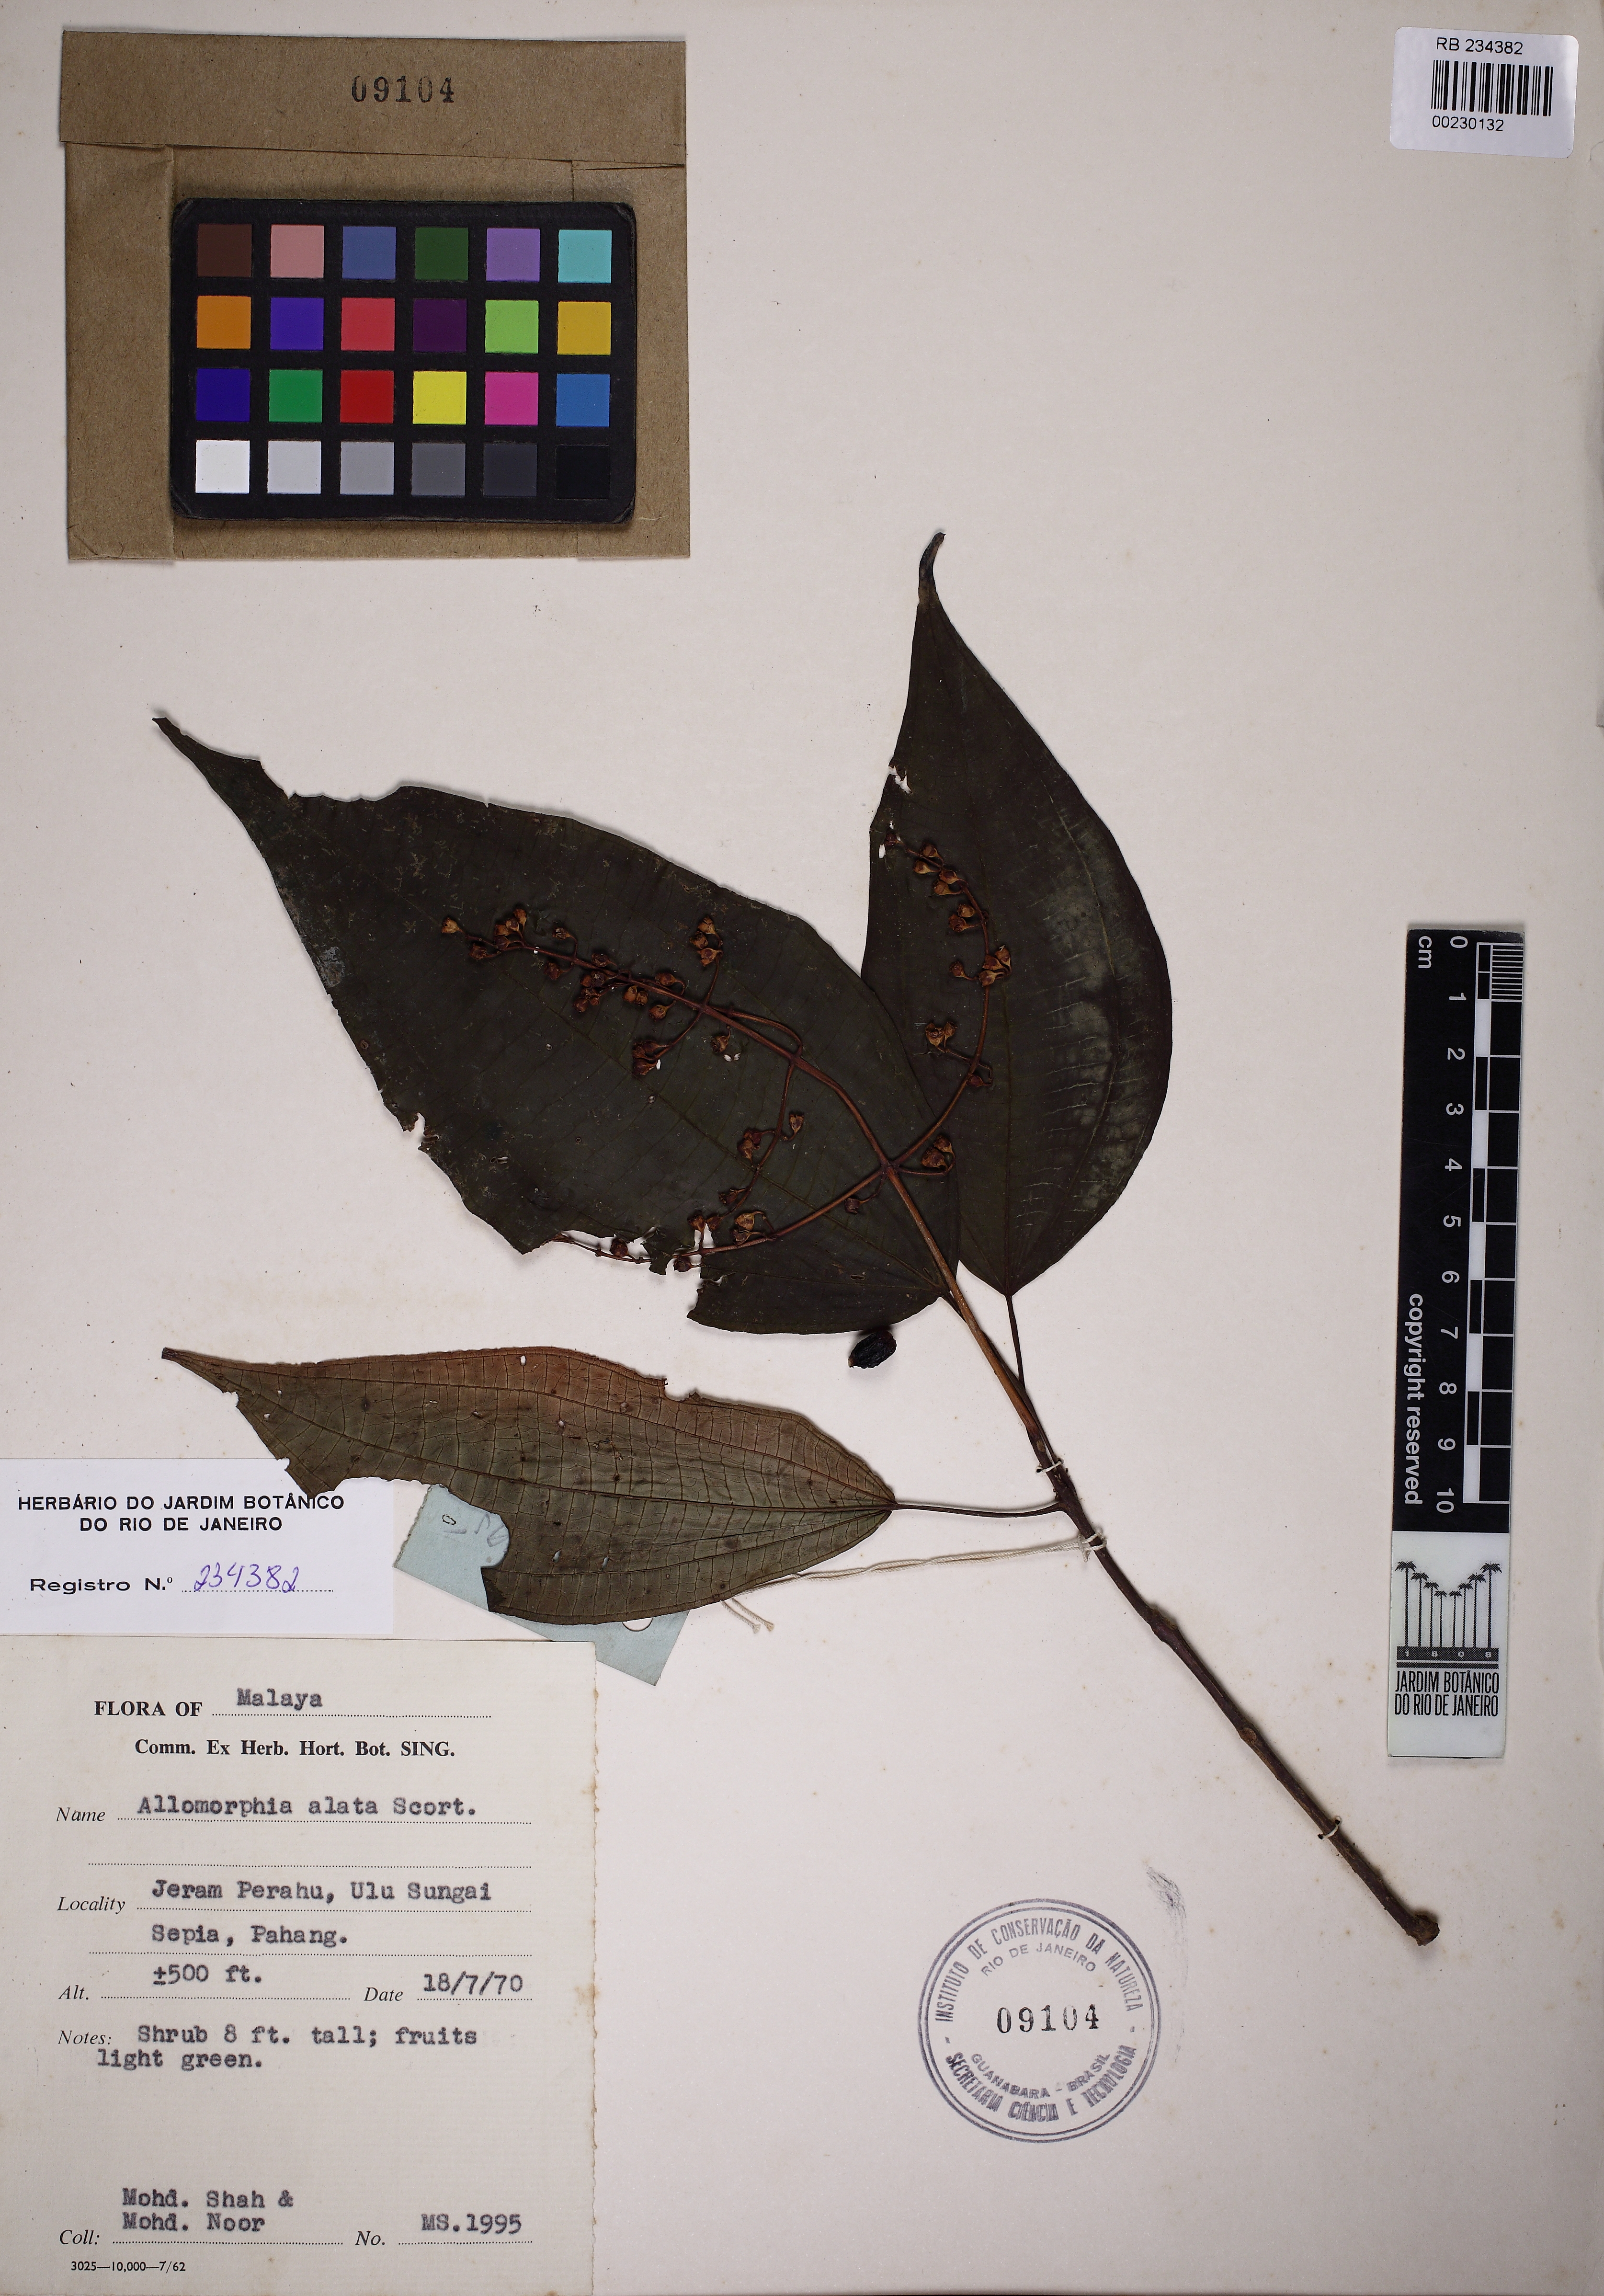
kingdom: Plantae
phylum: Tracheophyta
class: Magnoliopsida
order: Myrtales
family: Melastomataceae
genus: Pleroma
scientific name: Pleroma granulosum
